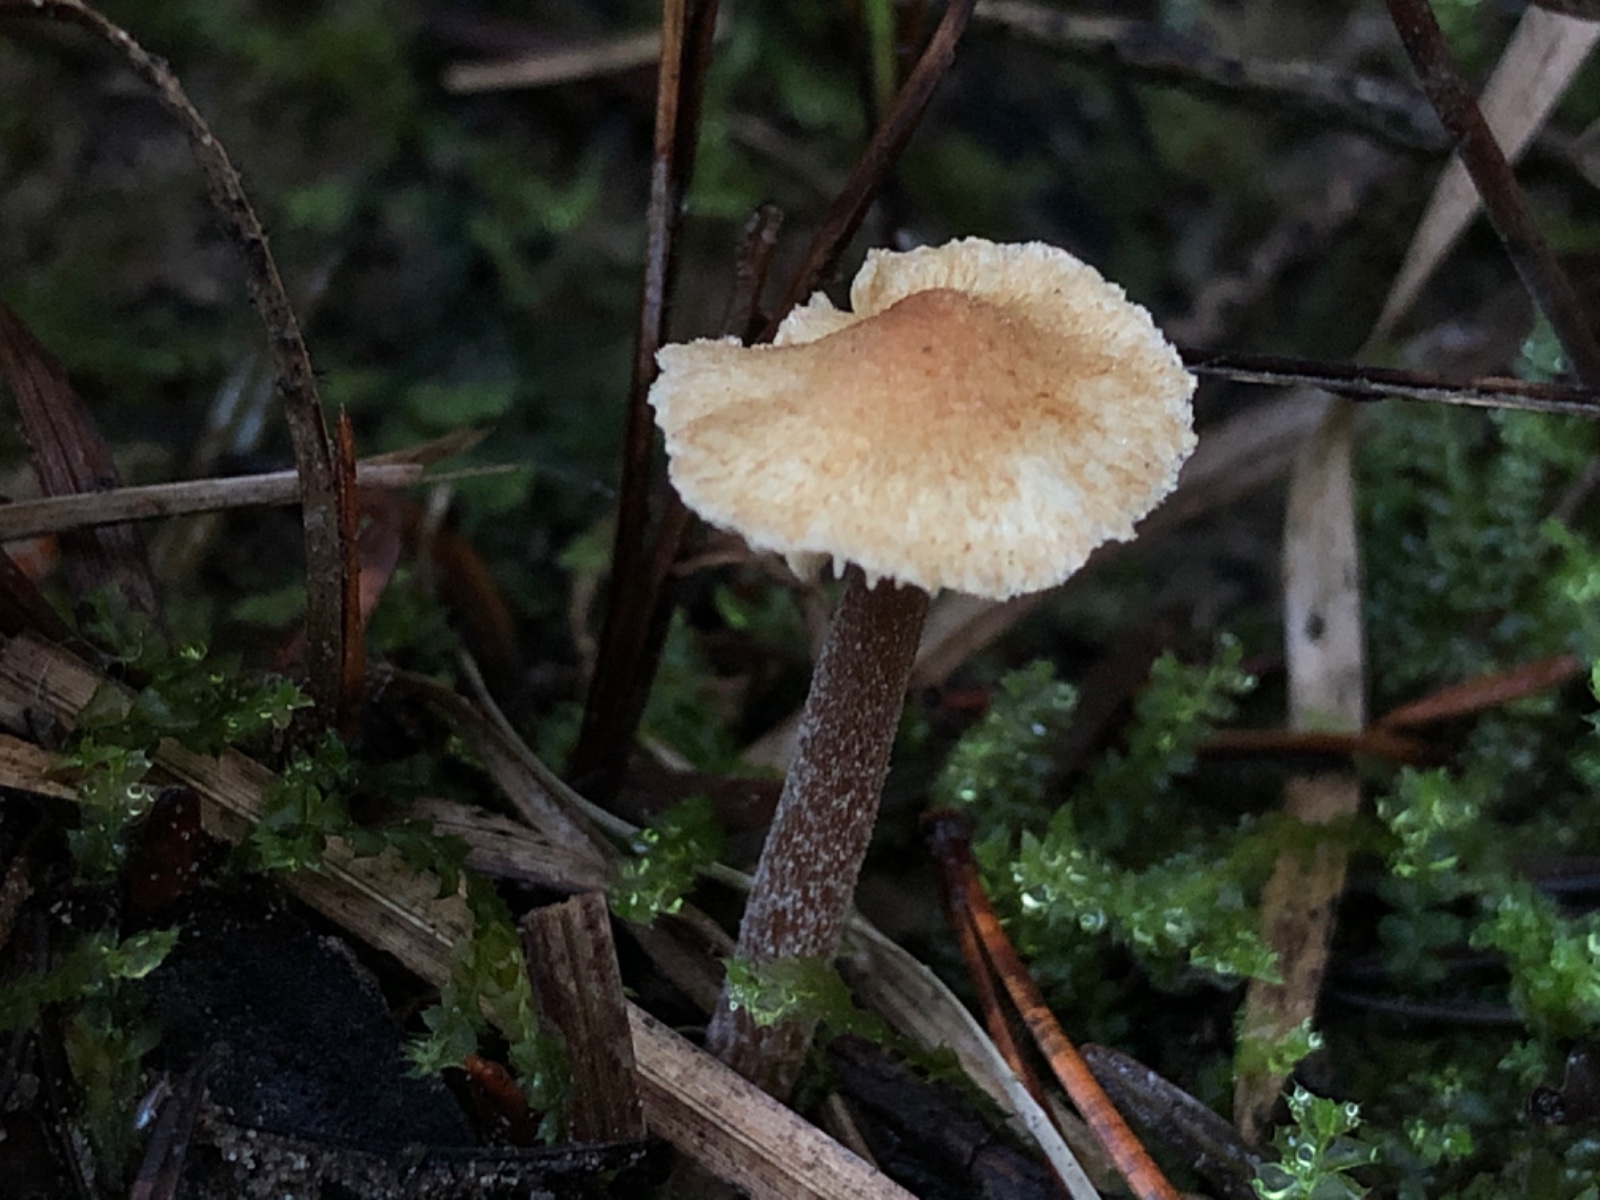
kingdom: Fungi
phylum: Basidiomycota
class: Agaricomycetes
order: Agaricales
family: Inocybaceae
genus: Inocybe
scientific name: Inocybe proteica
